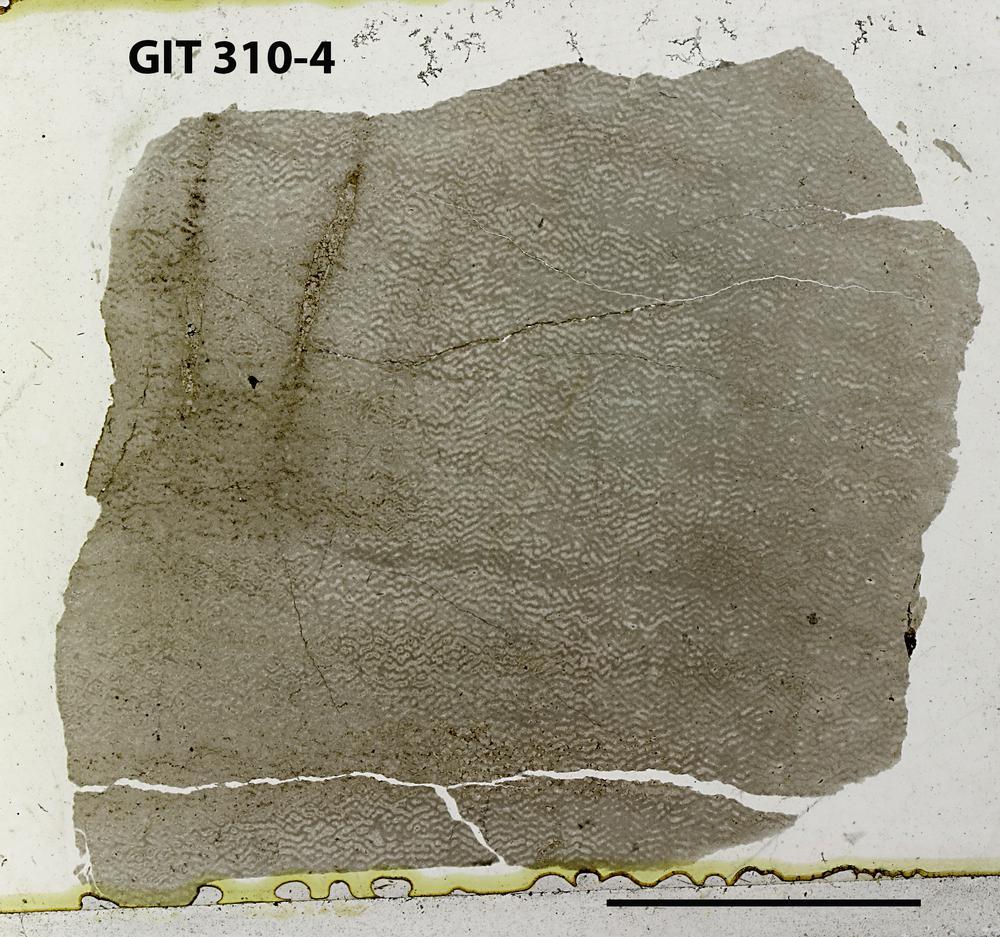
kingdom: Animalia
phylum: Porifera
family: Ecclimadictyidae
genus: Ecclimadictyon
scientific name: Ecclimadictyon
